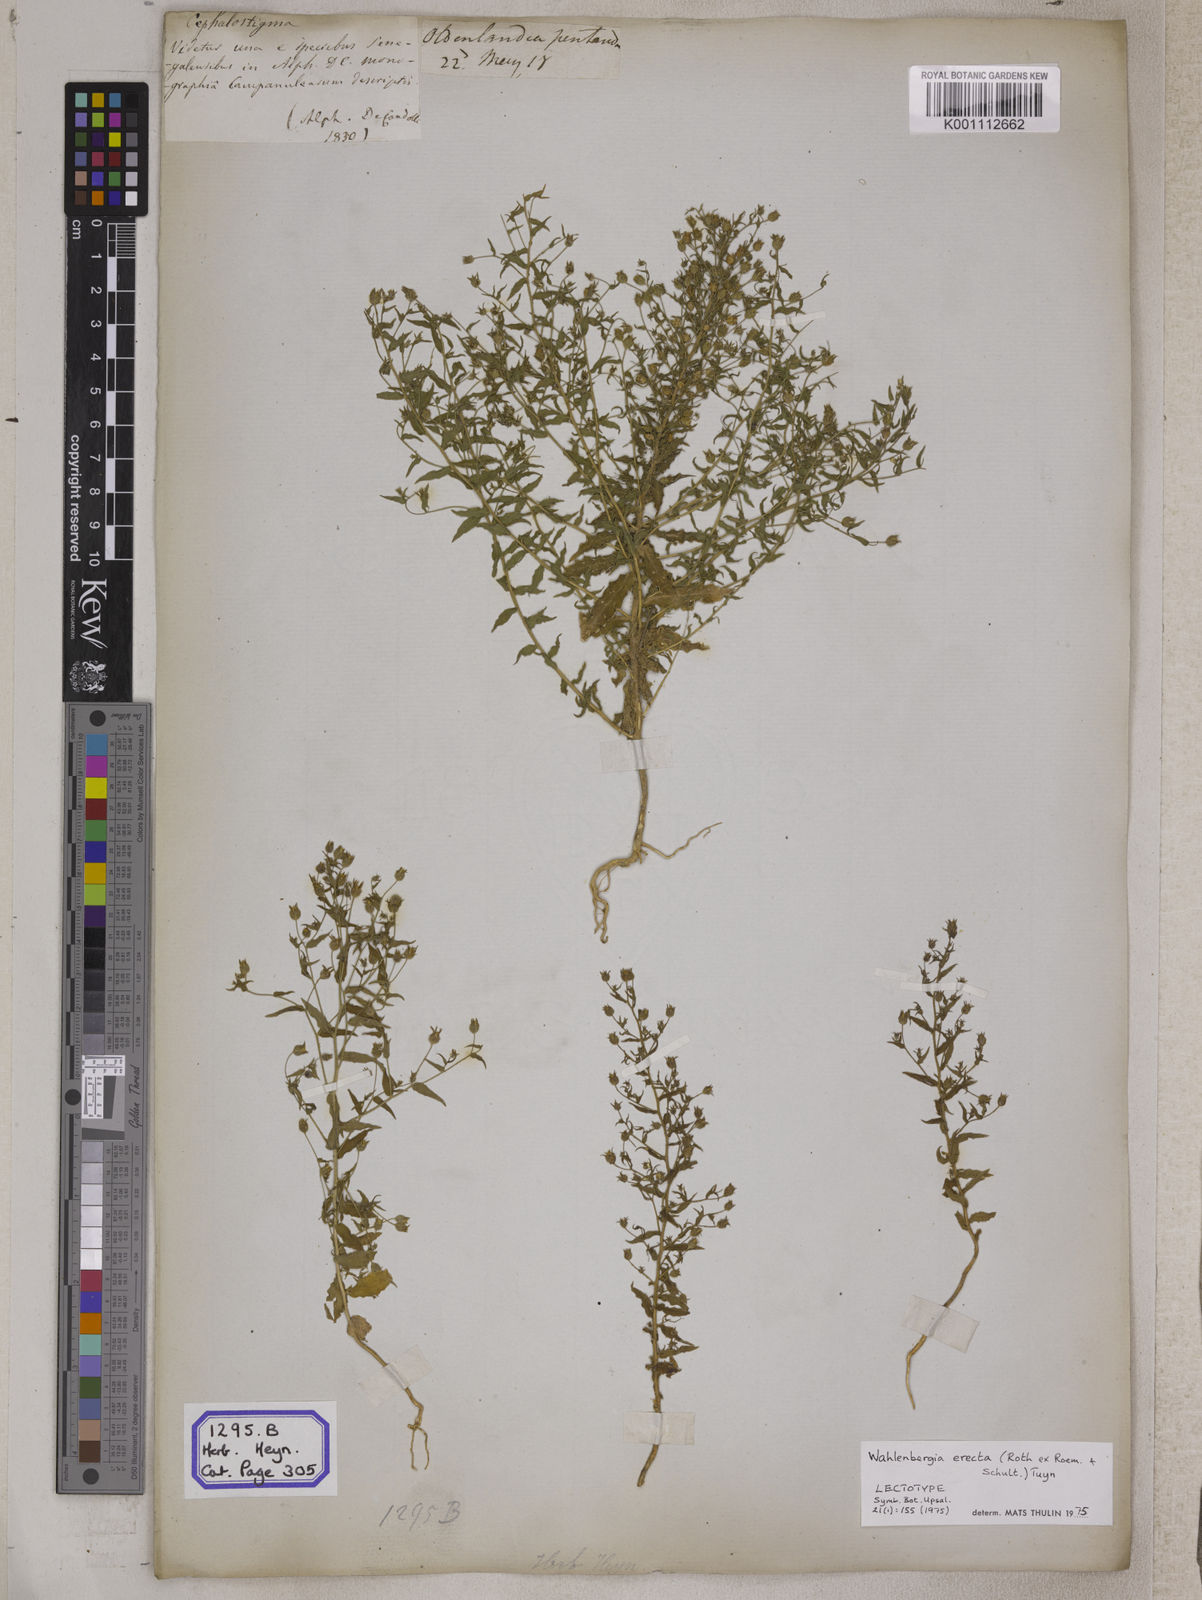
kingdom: Plantae
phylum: Tracheophyta
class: Magnoliopsida
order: Asterales
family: Campanulaceae
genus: Campanula
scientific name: Campanula
